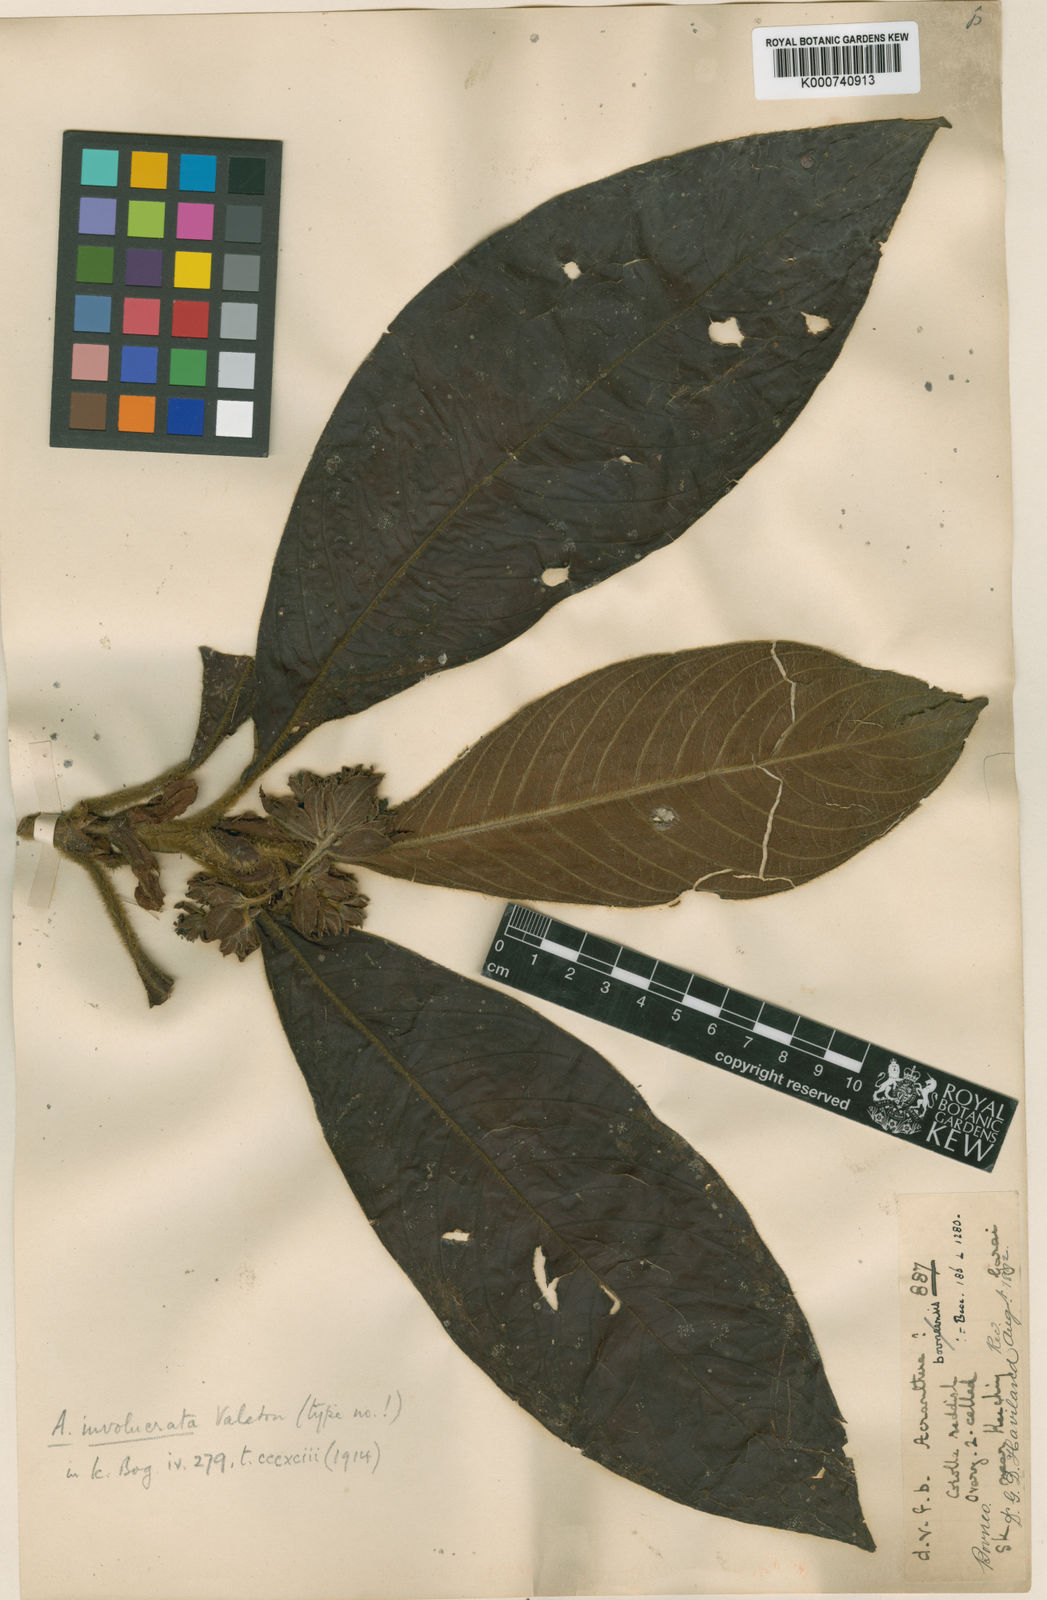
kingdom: Plantae
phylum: Tracheophyta
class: Magnoliopsida
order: Gentianales
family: Rubiaceae
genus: Acranthera
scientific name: Acranthera involucrata
